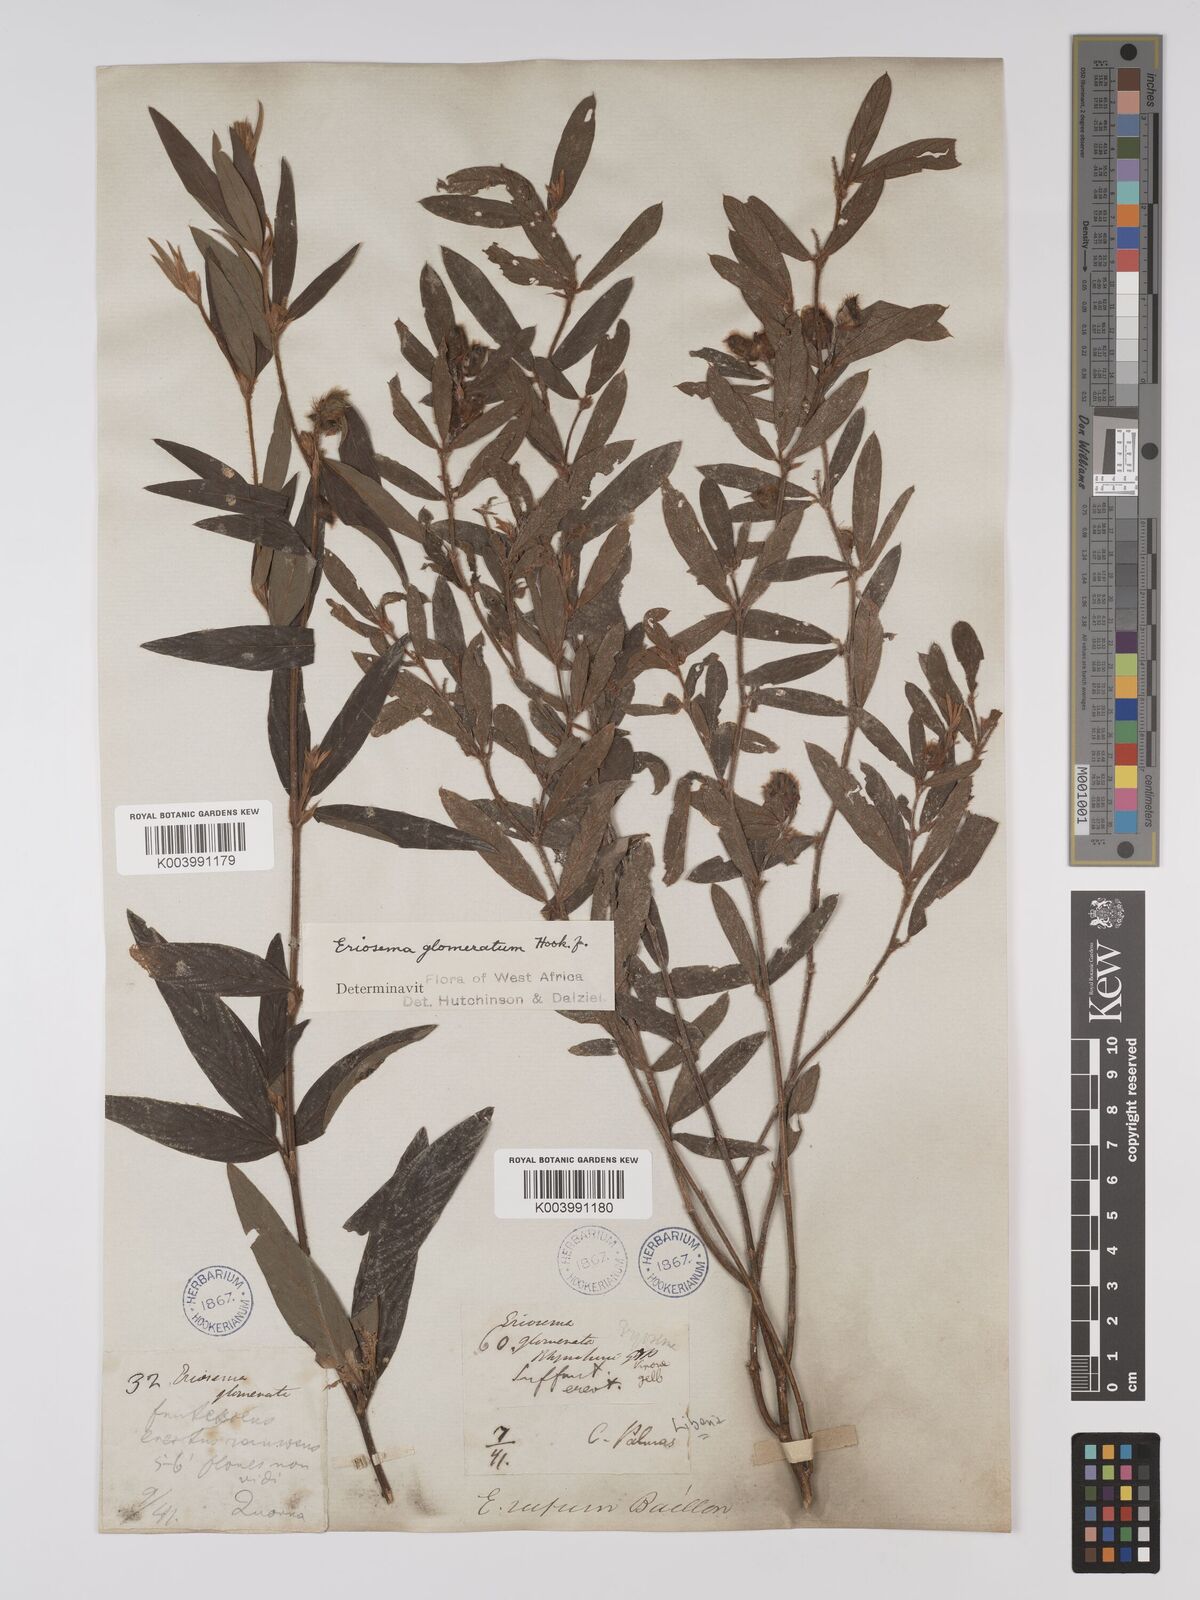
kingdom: Plantae
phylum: Tracheophyta
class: Magnoliopsida
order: Fabales
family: Fabaceae
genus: Eriosema
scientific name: Eriosema glomeratum
